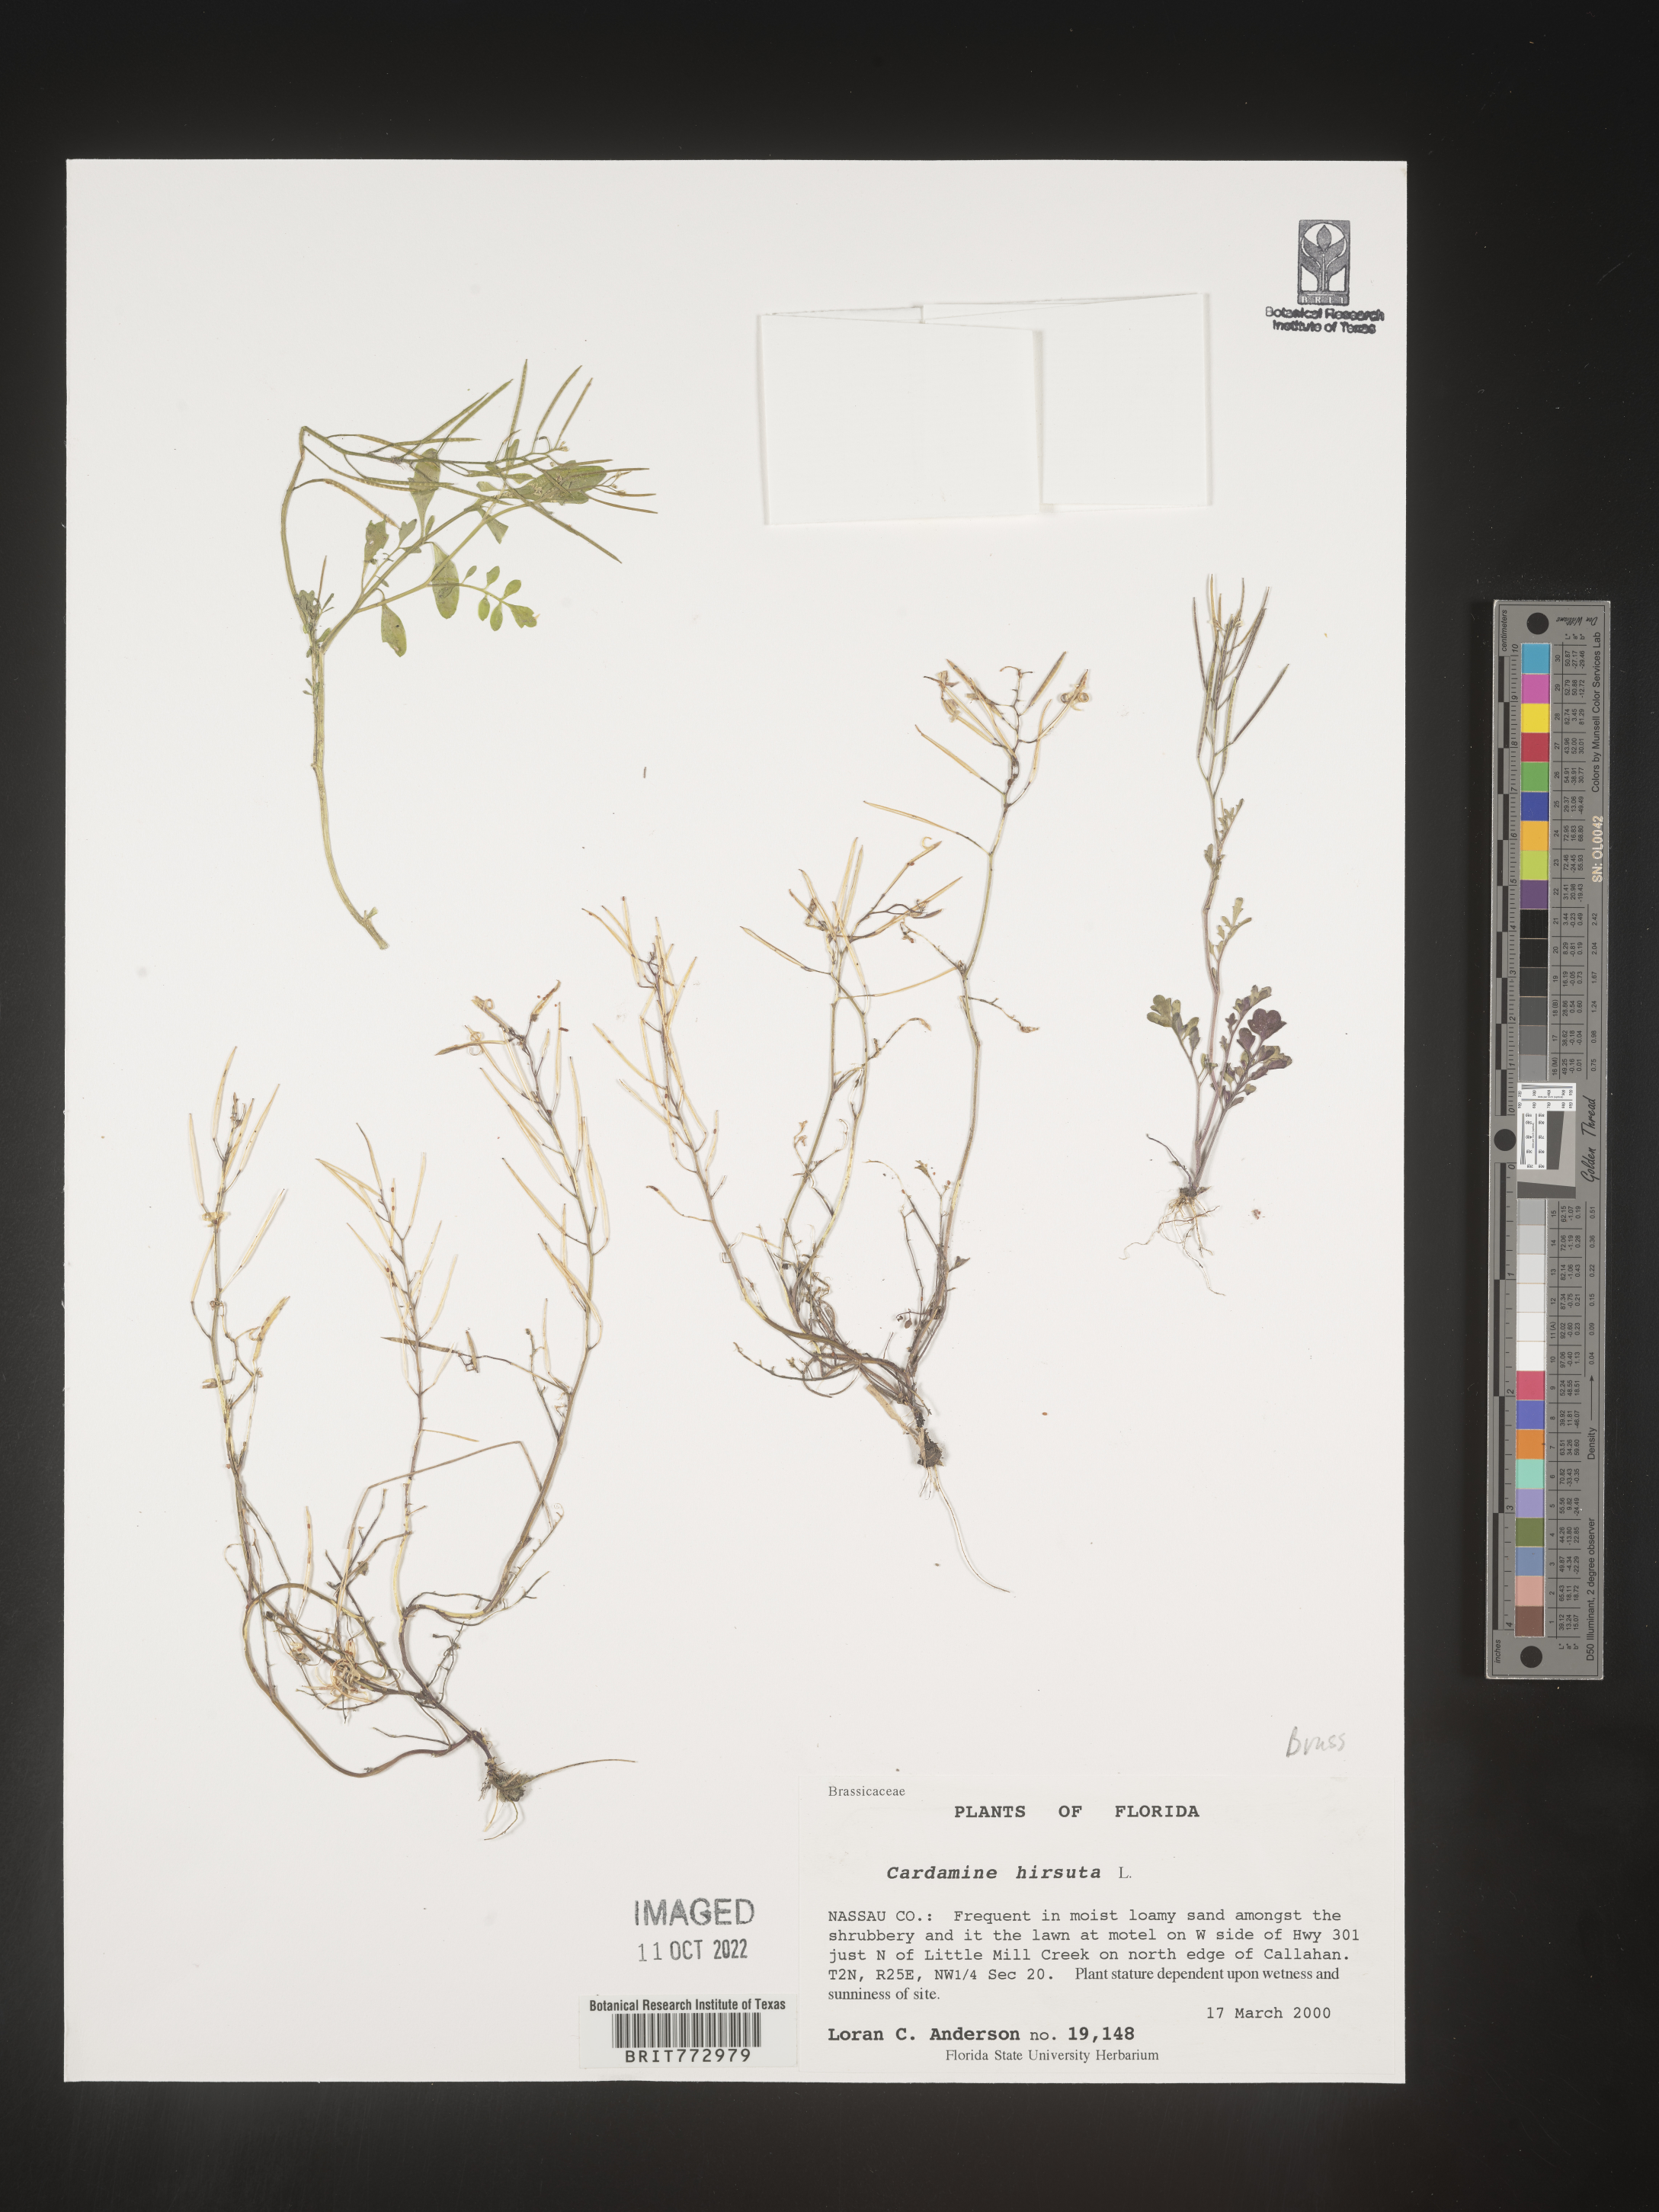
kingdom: Plantae
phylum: Tracheophyta
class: Magnoliopsida
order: Brassicales
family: Brassicaceae
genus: Cardamine
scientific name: Cardamine hirsuta
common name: Hairy bittercress
